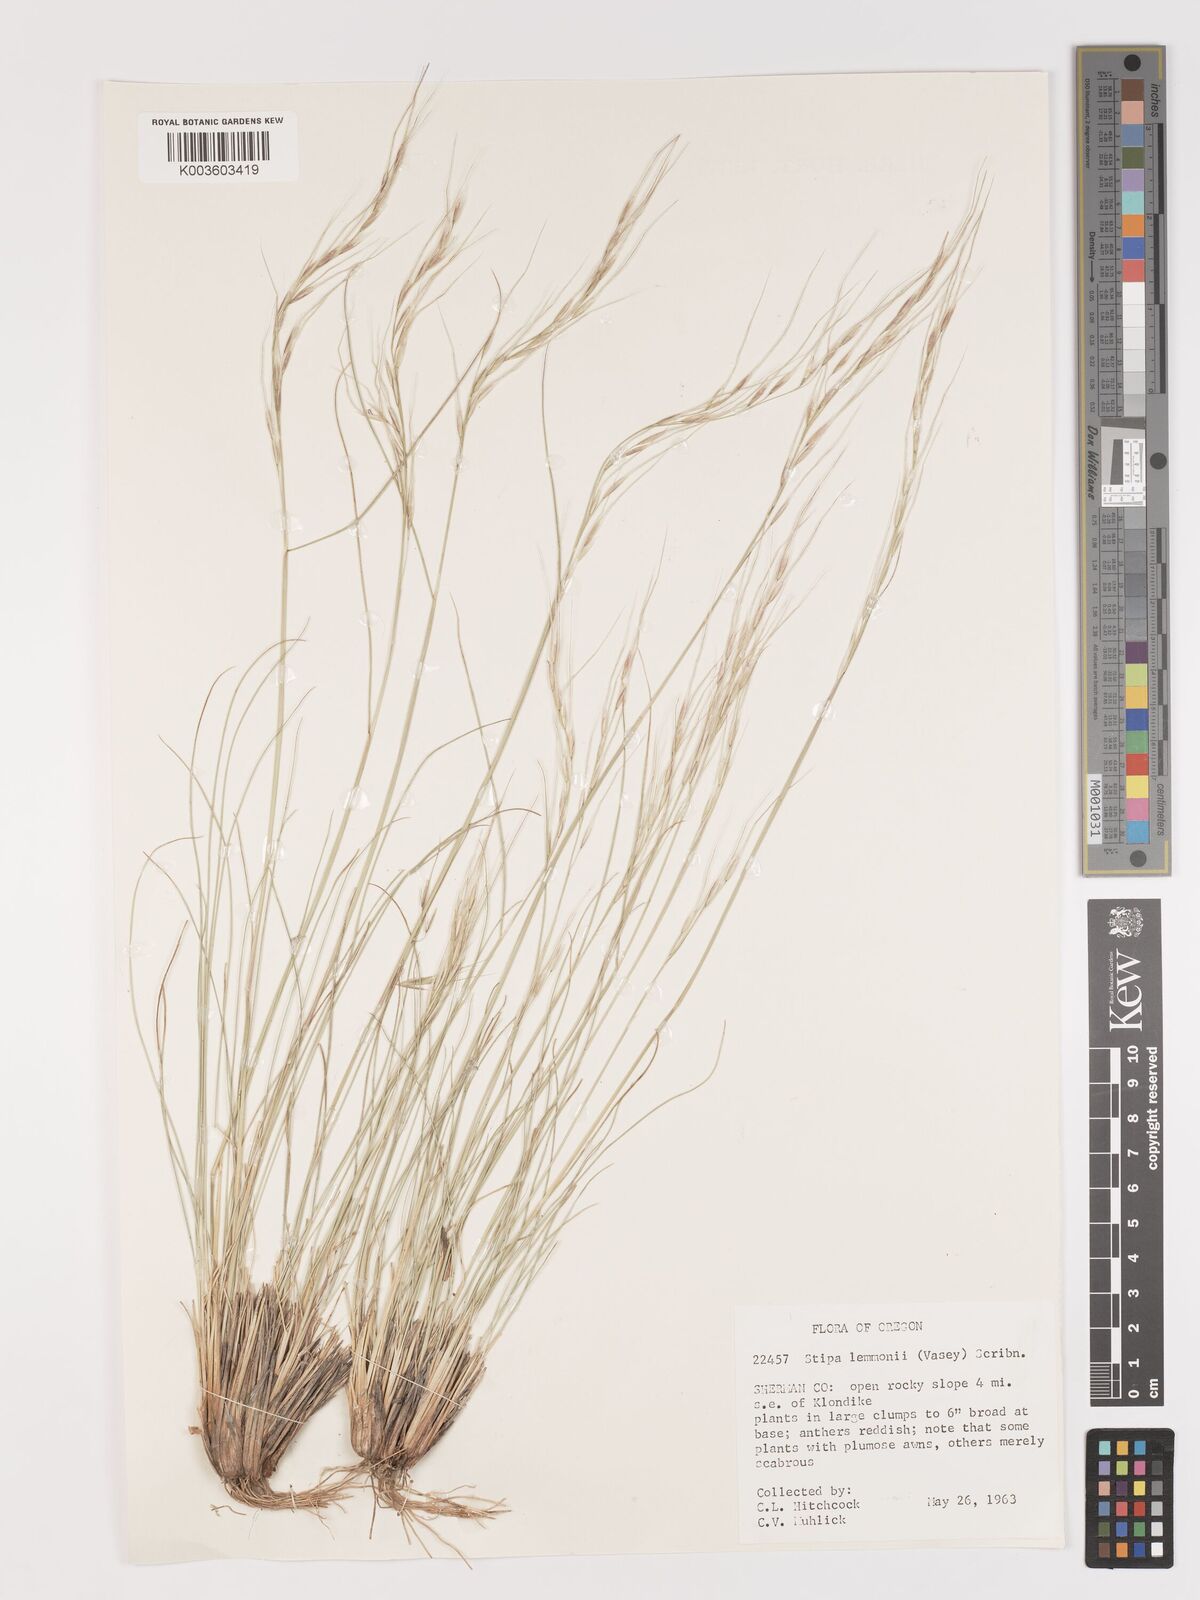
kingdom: Plantae
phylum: Tracheophyta
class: Liliopsida
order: Poales
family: Poaceae
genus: Eriocoma
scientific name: Eriocoma lemmonii
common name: Lemmon's needlegrass
